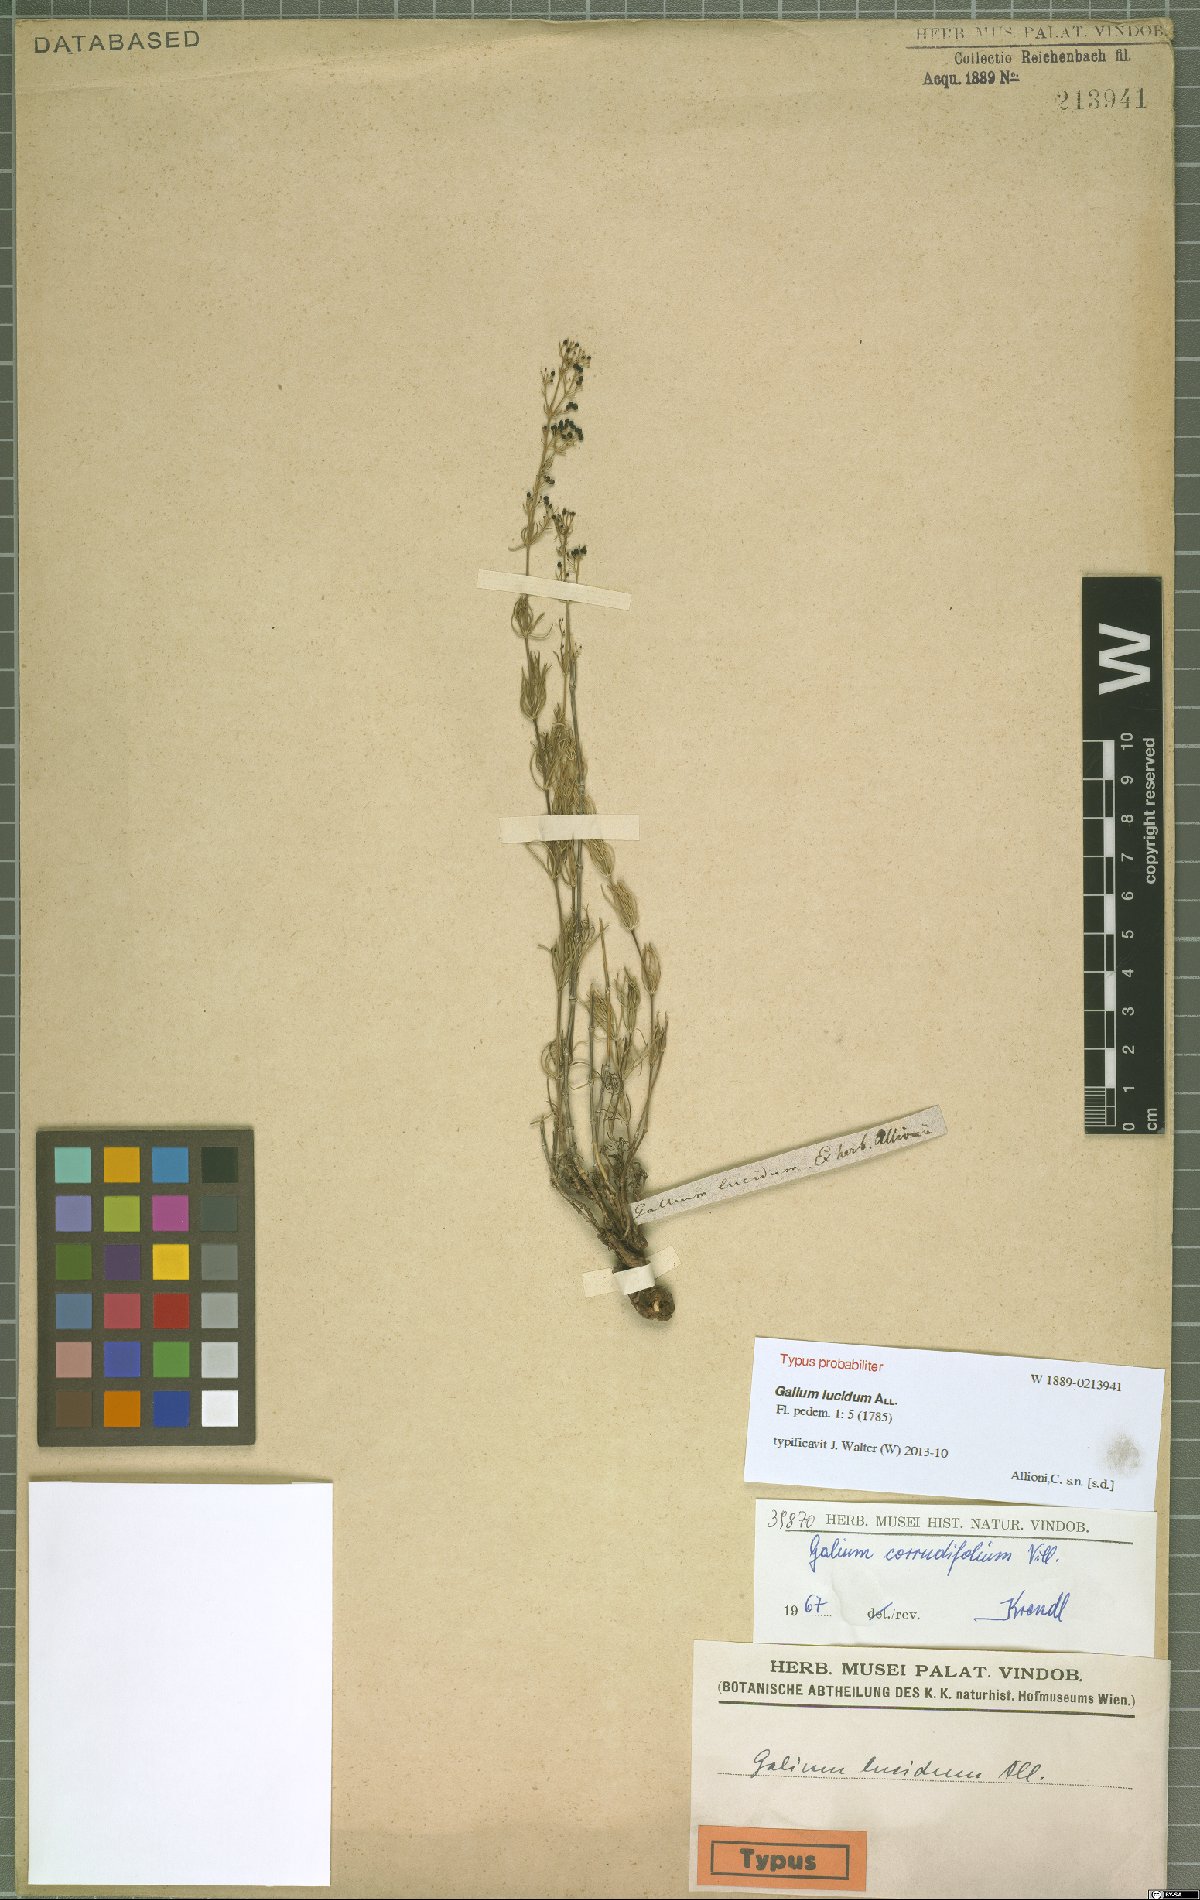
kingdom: Plantae
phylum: Tracheophyta
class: Magnoliopsida
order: Gentianales
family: Rubiaceae
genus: Galium
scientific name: Galium lucidum
